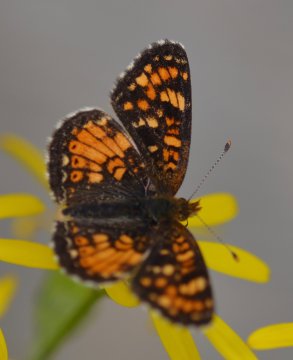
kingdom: Animalia
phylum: Arthropoda
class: Insecta
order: Lepidoptera
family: Nymphalidae
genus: Phyciodes
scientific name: Phyciodes tharos
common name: Field Crescent
